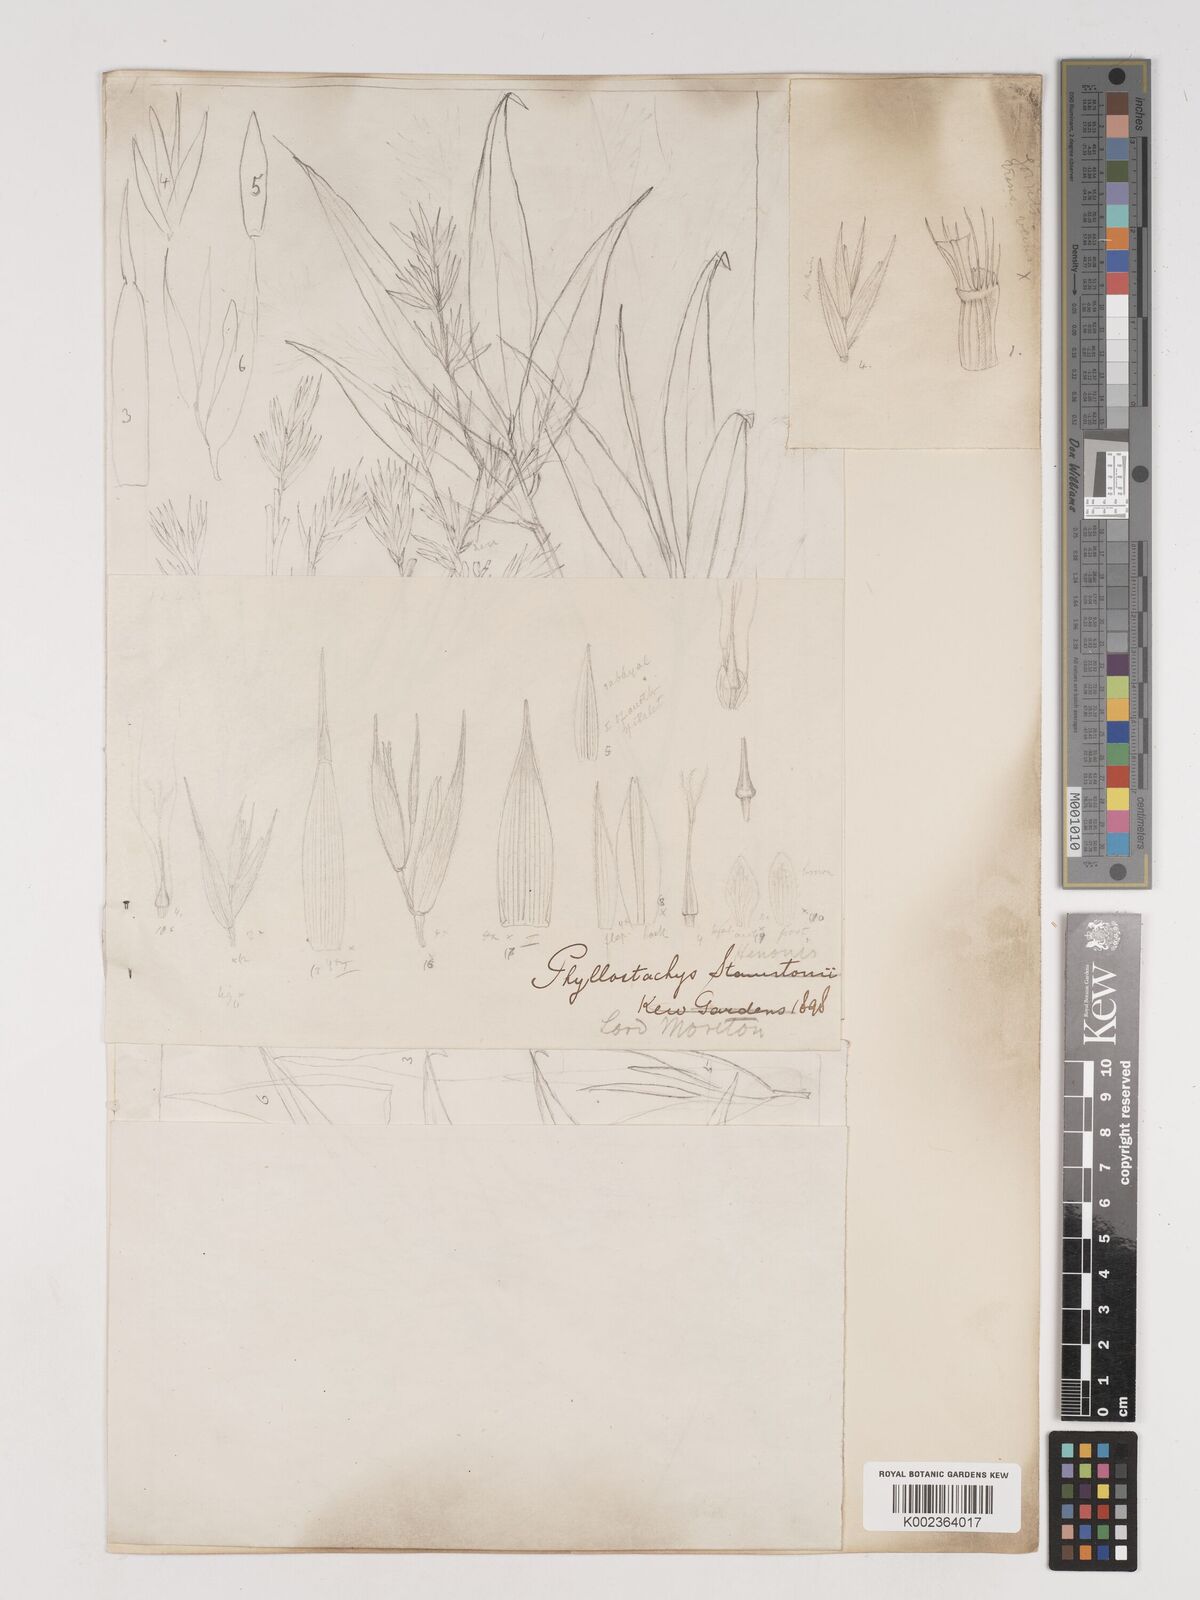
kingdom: Plantae
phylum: Tracheophyta
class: Liliopsida
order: Poales
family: Poaceae
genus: Phyllostachys
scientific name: Phyllostachys nigra
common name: Black bamboo
